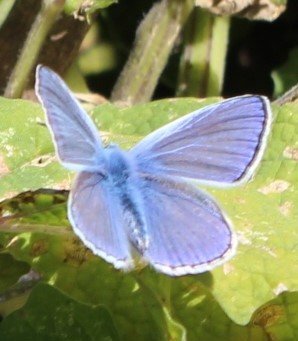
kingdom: Animalia
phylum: Arthropoda
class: Insecta
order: Lepidoptera
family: Lycaenidae
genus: Polyommatus
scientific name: Polyommatus icarus
